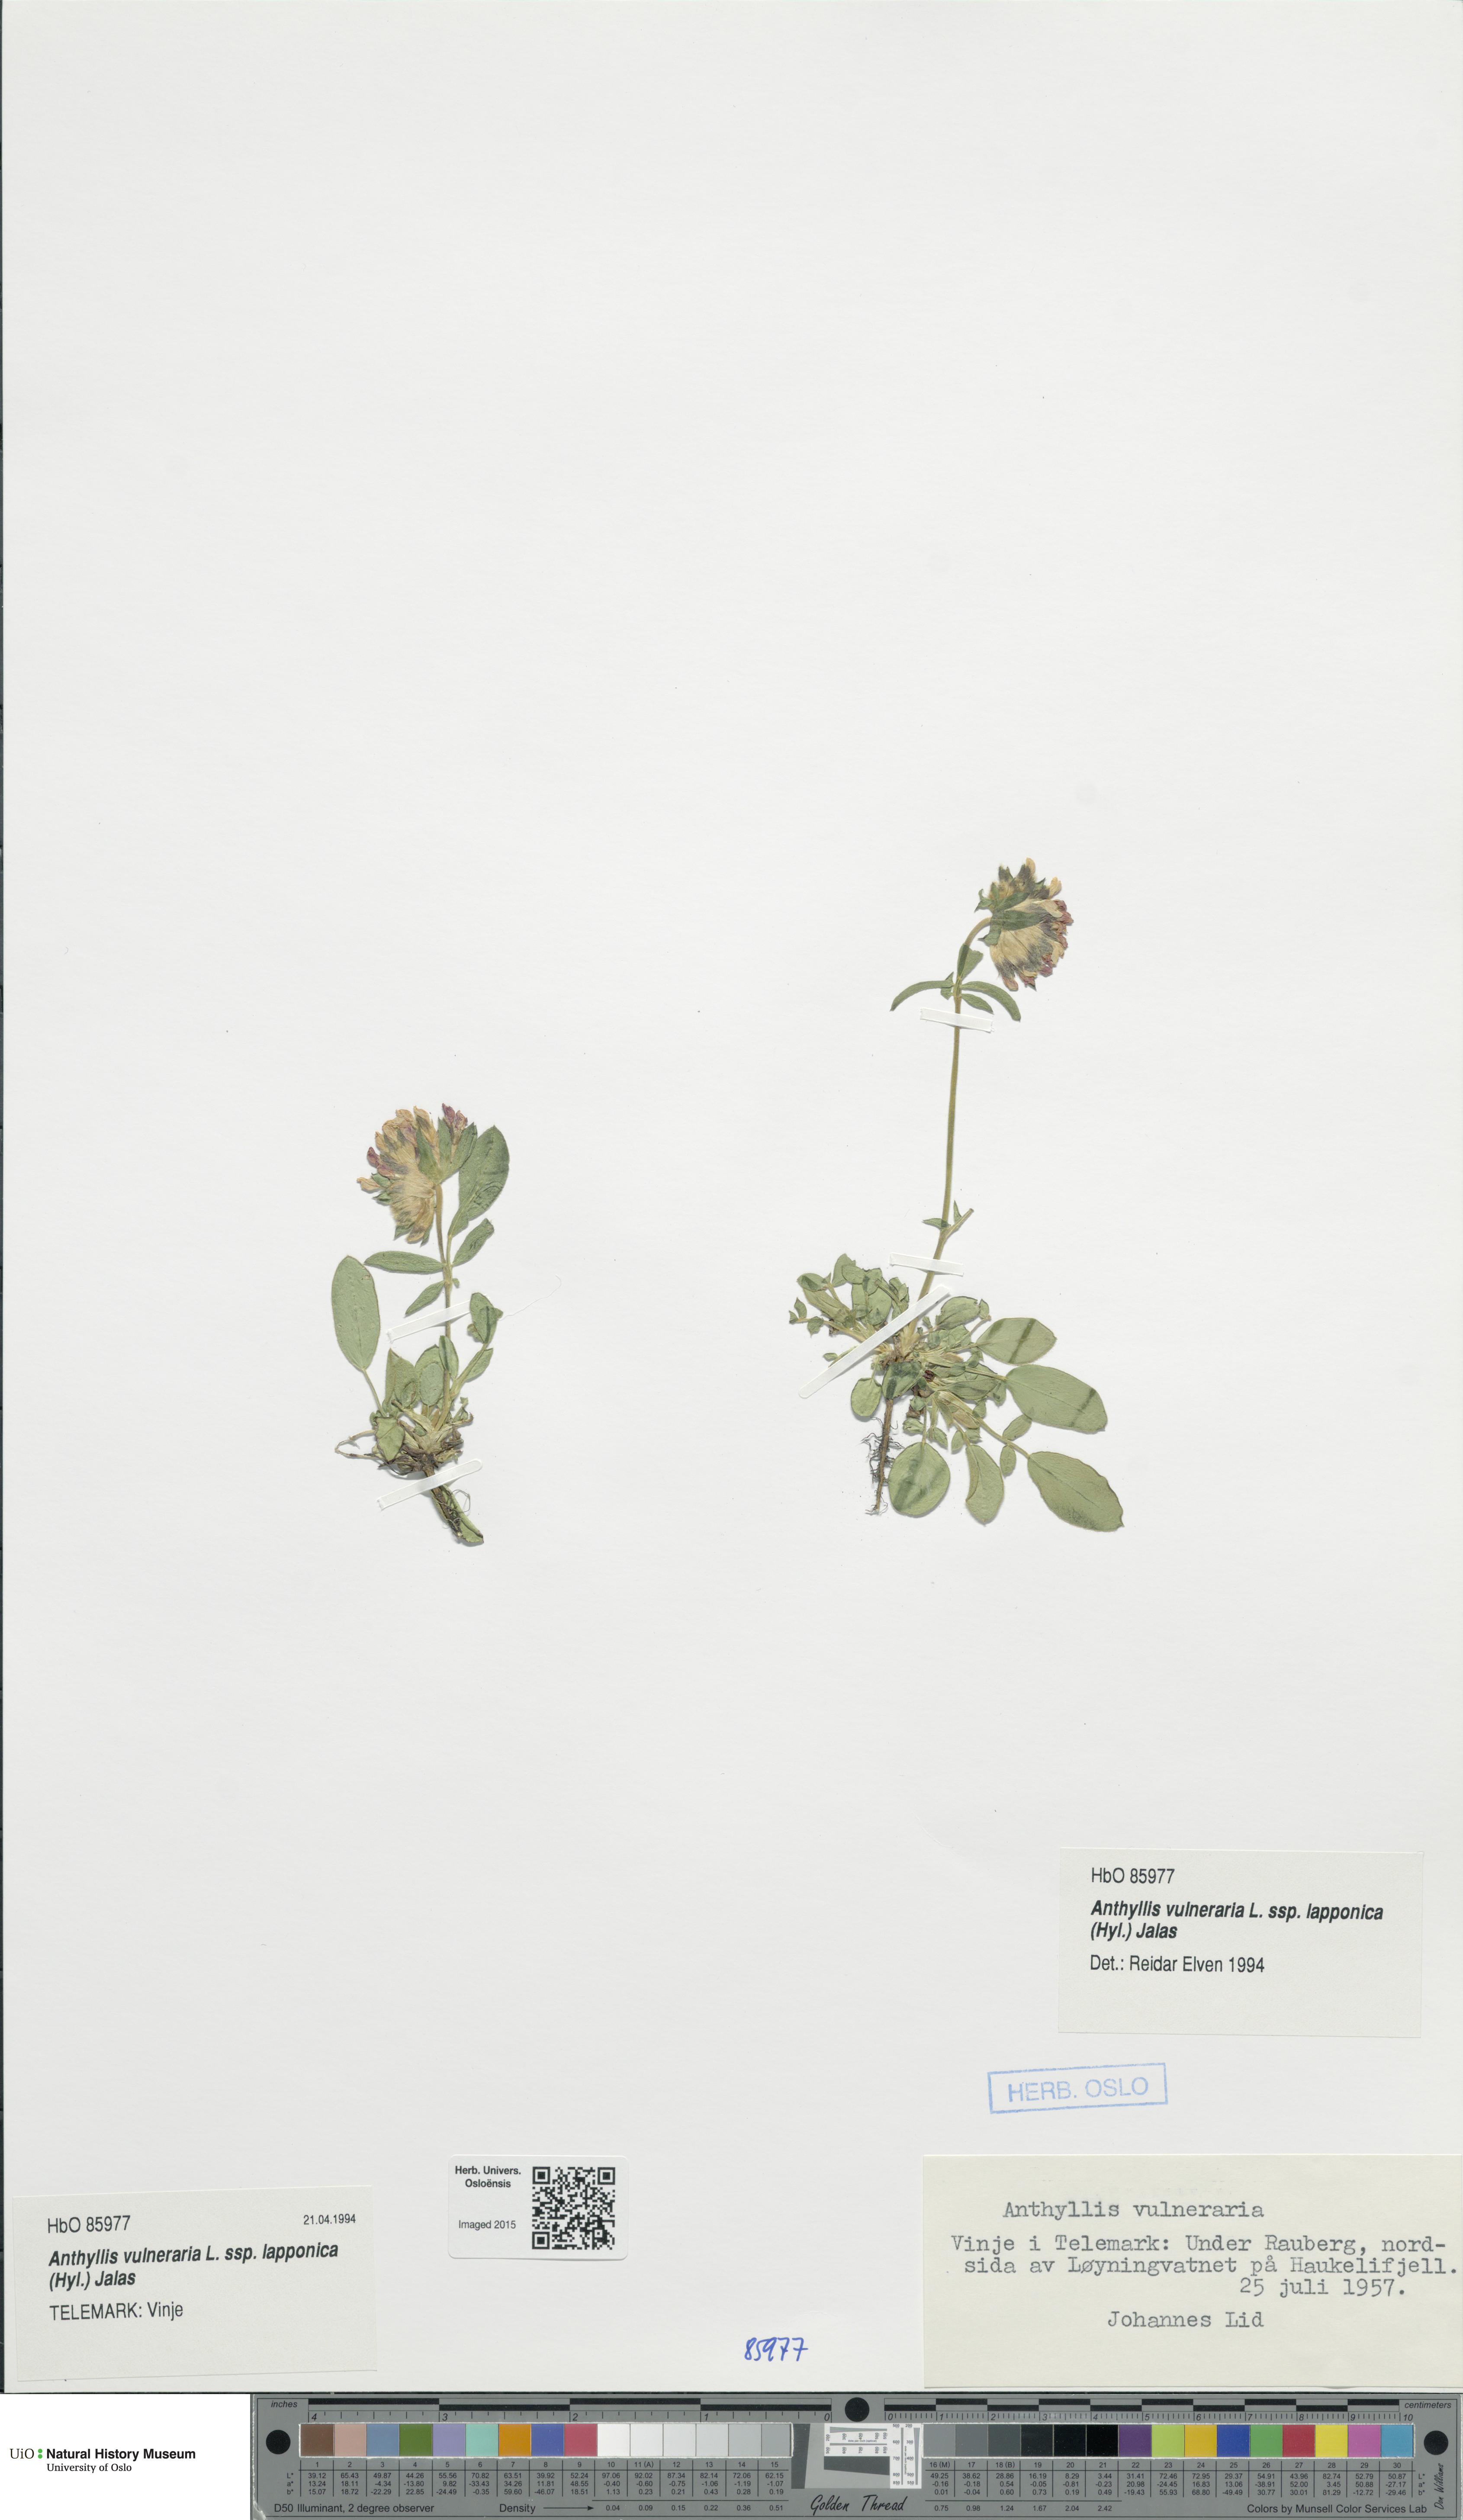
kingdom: Plantae
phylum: Tracheophyta
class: Magnoliopsida
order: Fabales
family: Fabaceae
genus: Anthyllis
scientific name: Anthyllis vulneraria
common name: Kidney vetch
